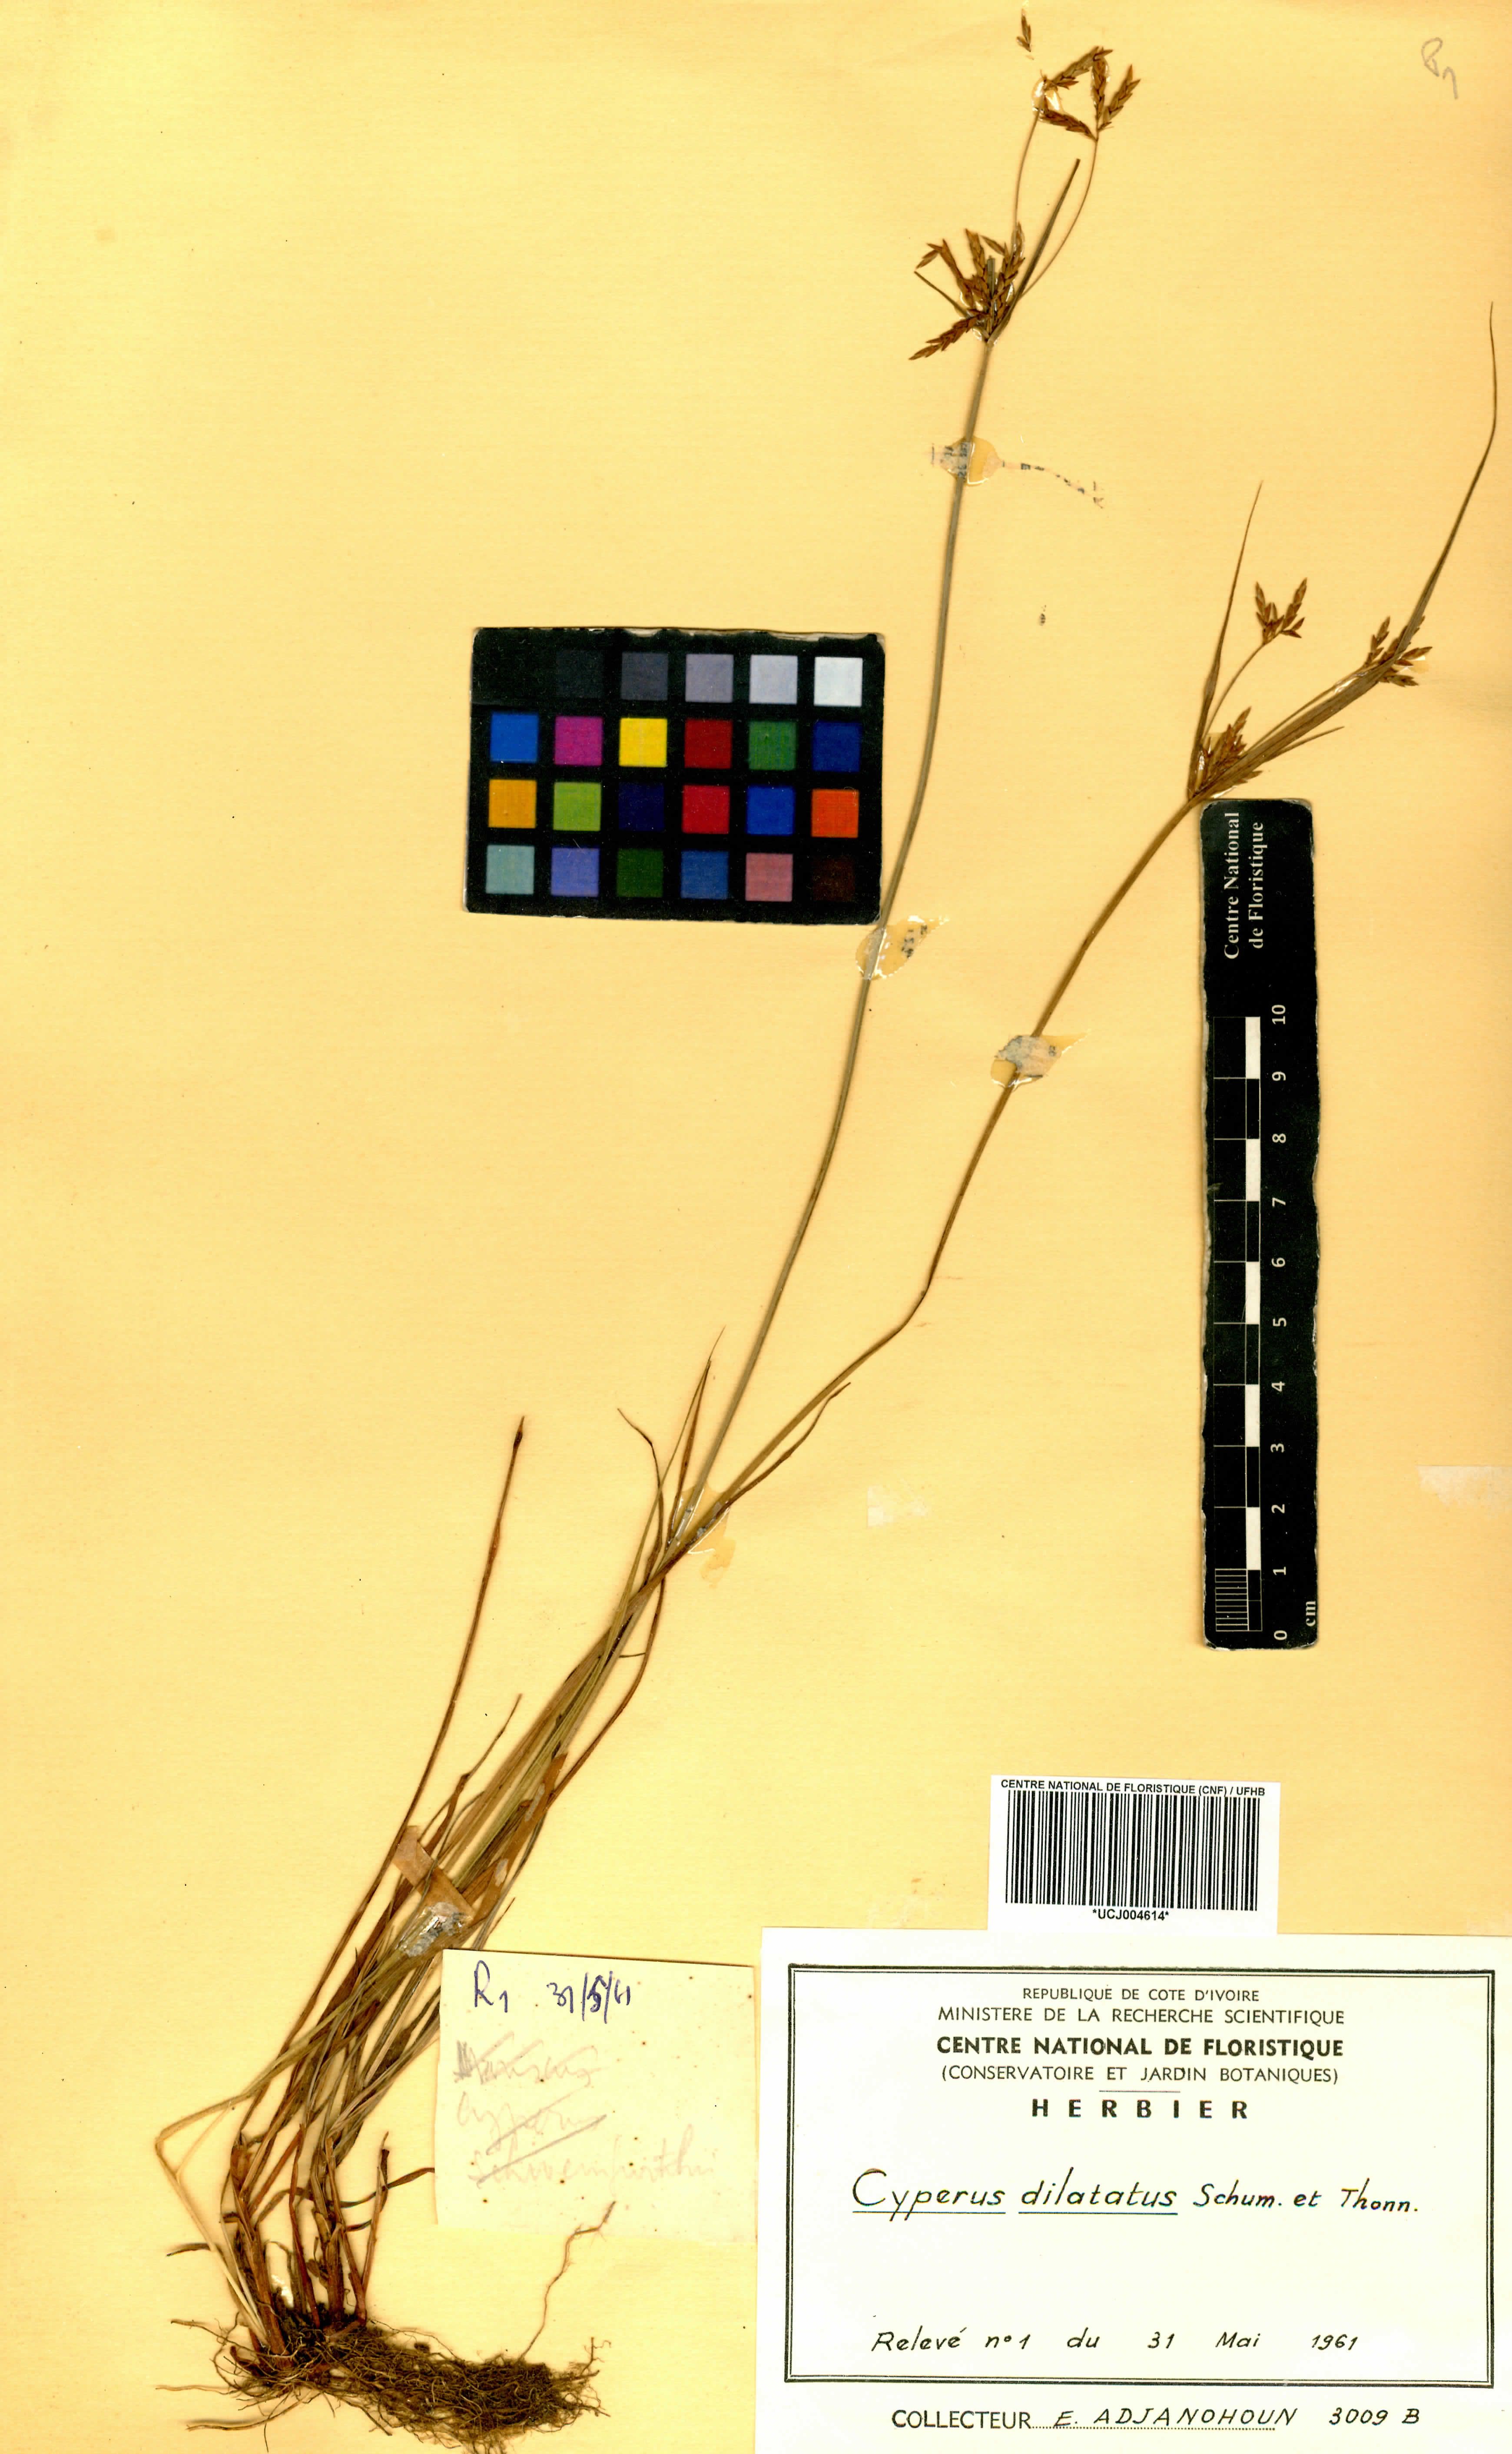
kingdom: Plantae
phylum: Tracheophyta
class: Liliopsida
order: Poales
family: Cyperaceae
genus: Cyperus
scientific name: Cyperus dilatatus
